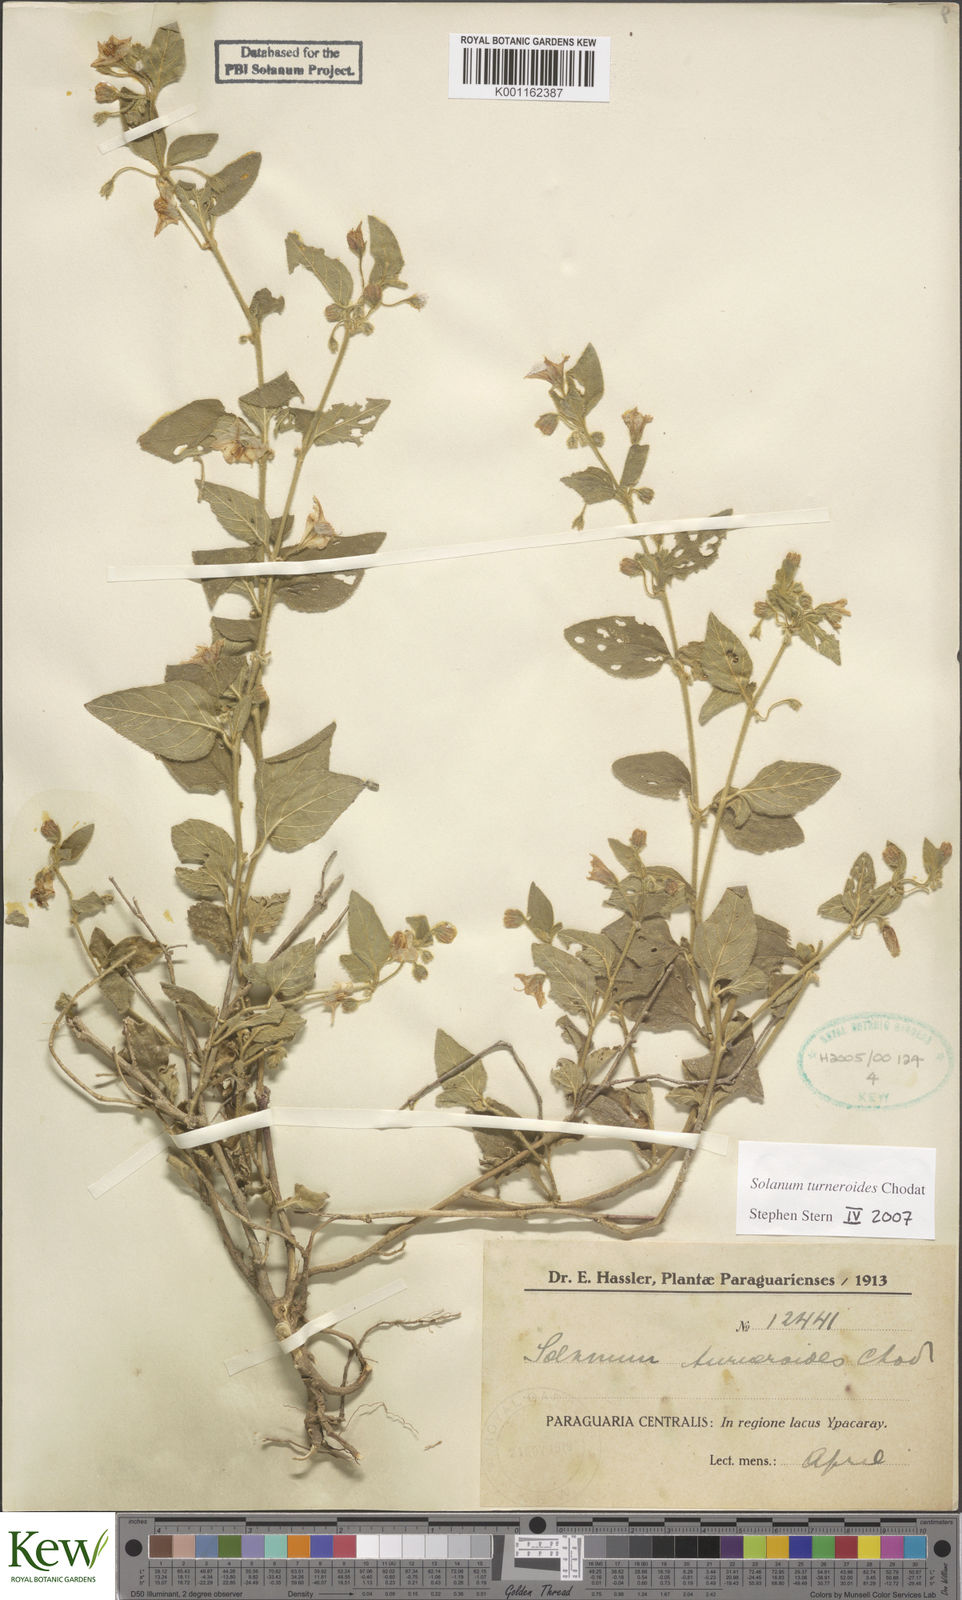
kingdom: Plantae
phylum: Tracheophyta
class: Magnoliopsida
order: Solanales
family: Solanaceae
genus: Solanum
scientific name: Solanum turneroides
